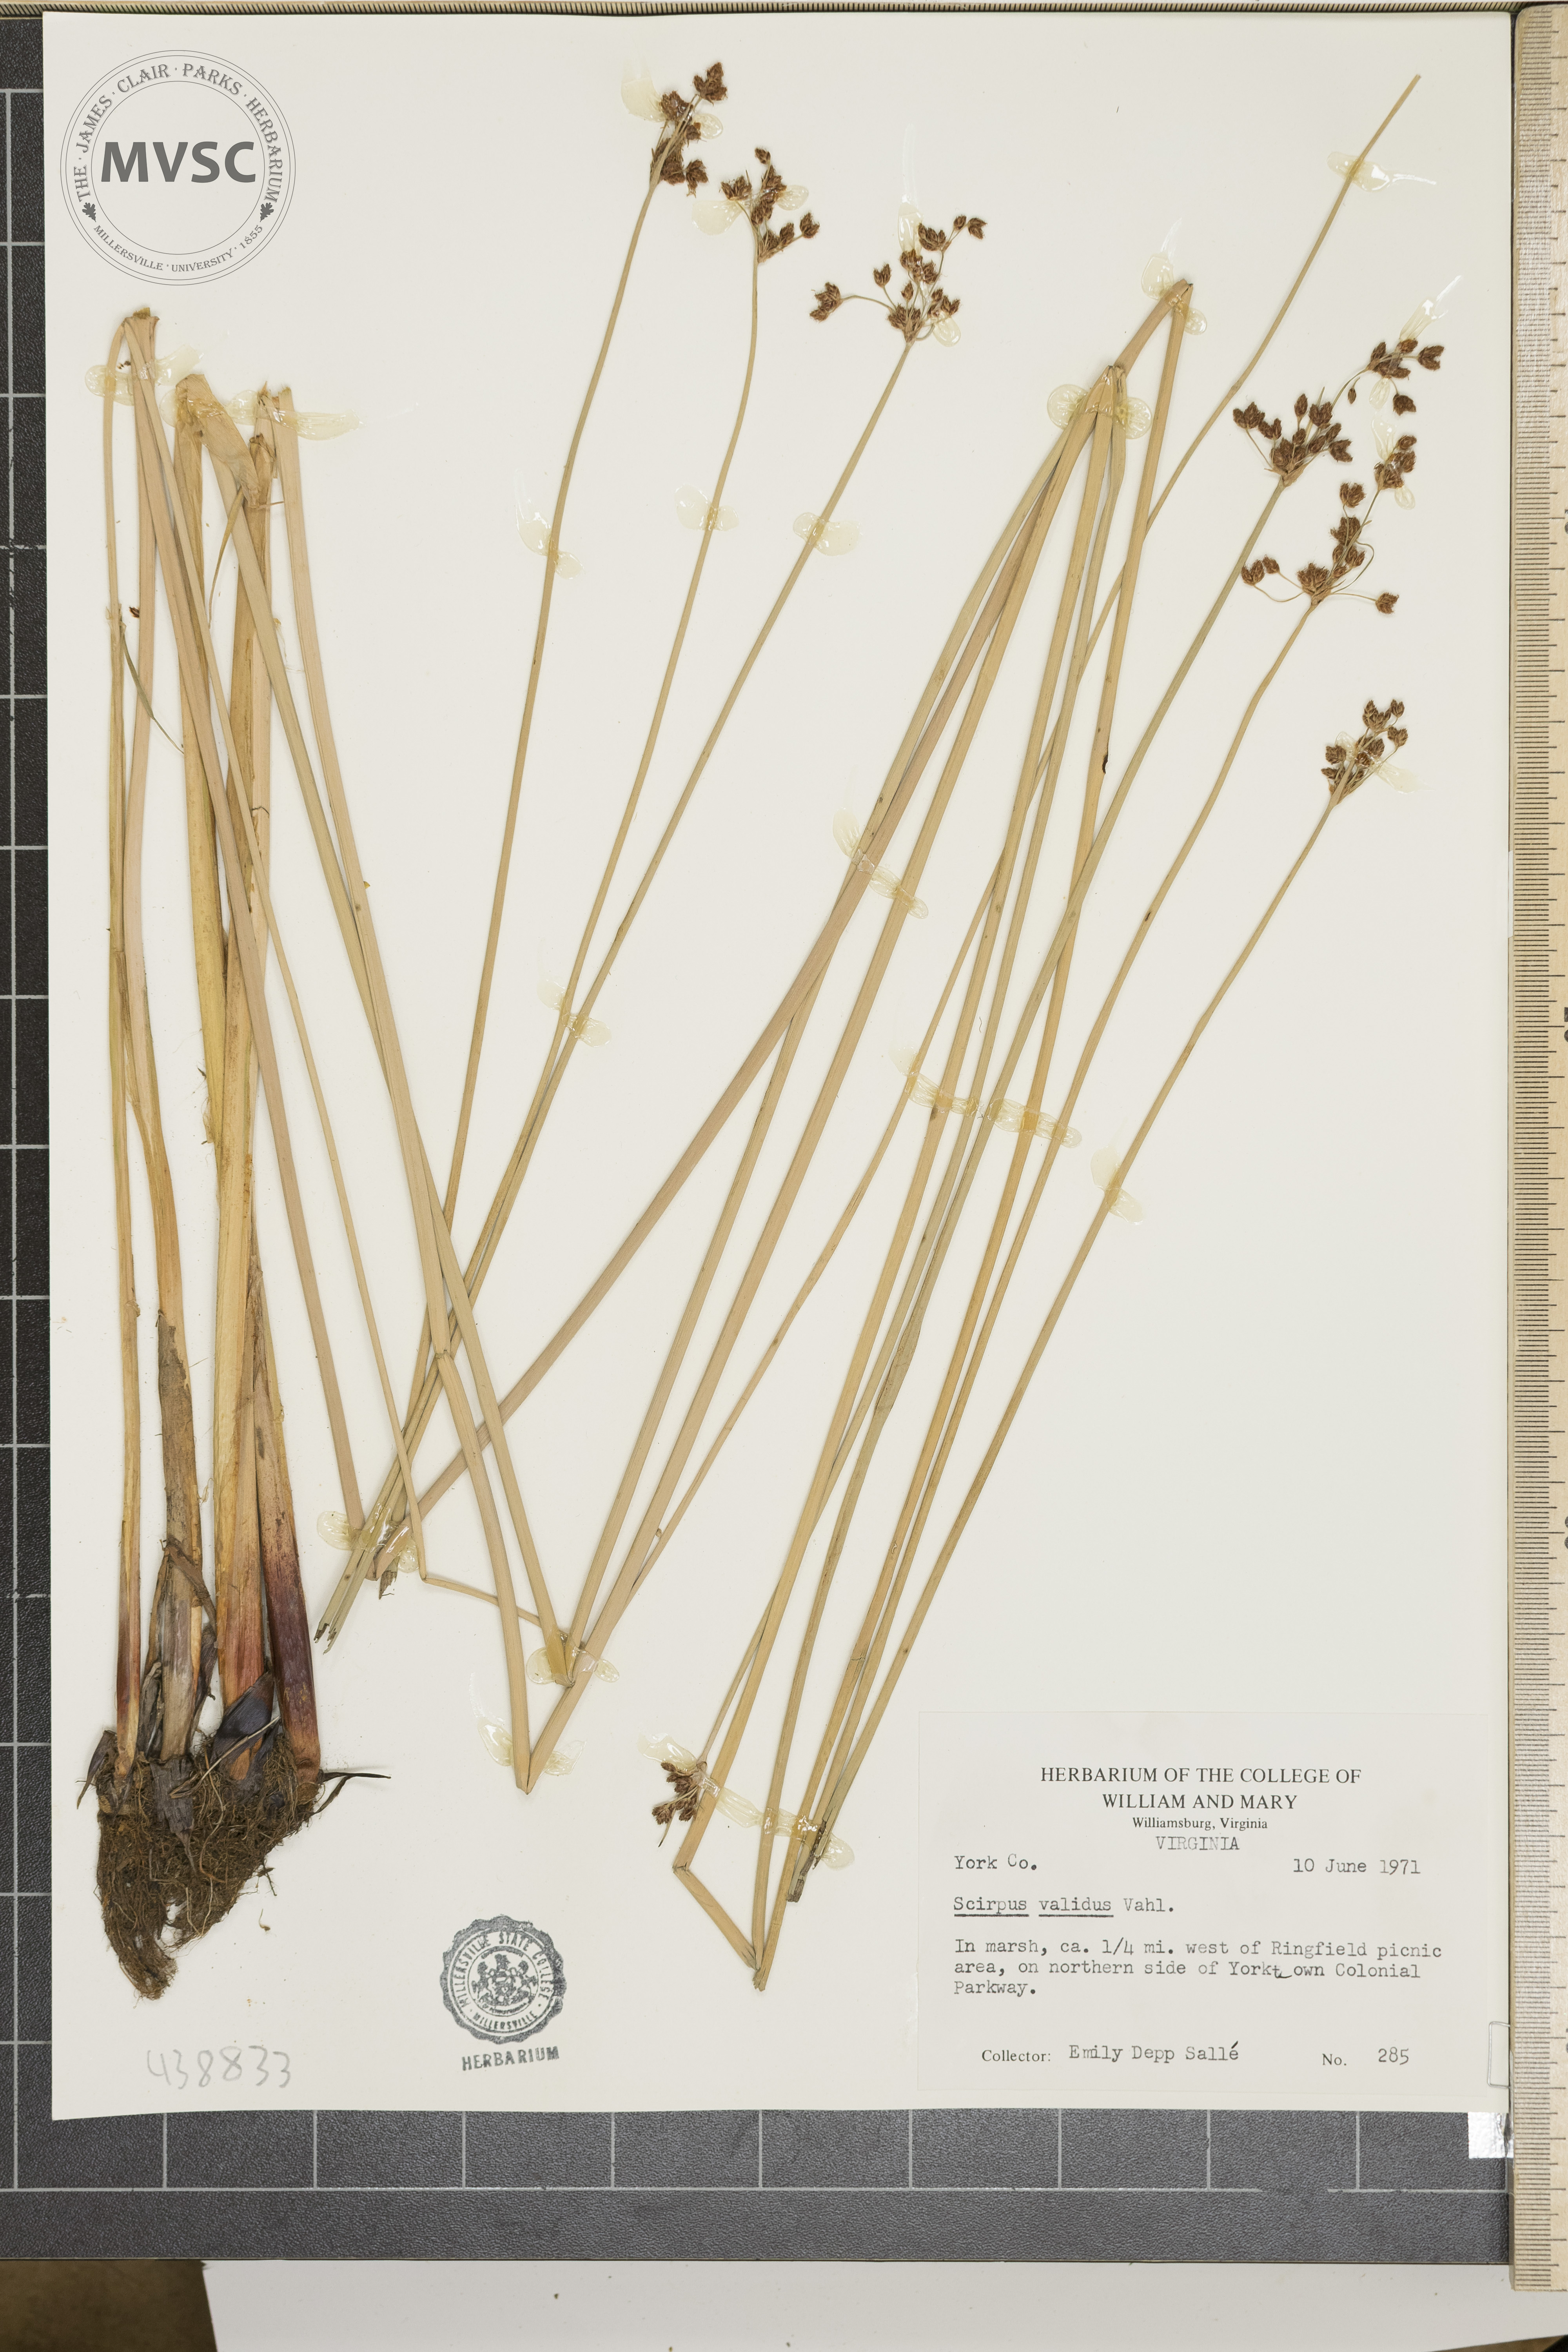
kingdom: Plantae
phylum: Tracheophyta
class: Liliopsida
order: Poales
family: Cyperaceae
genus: Schoenoplectus
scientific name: Schoenoplectus tabernaemontani
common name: Grey club-rush
